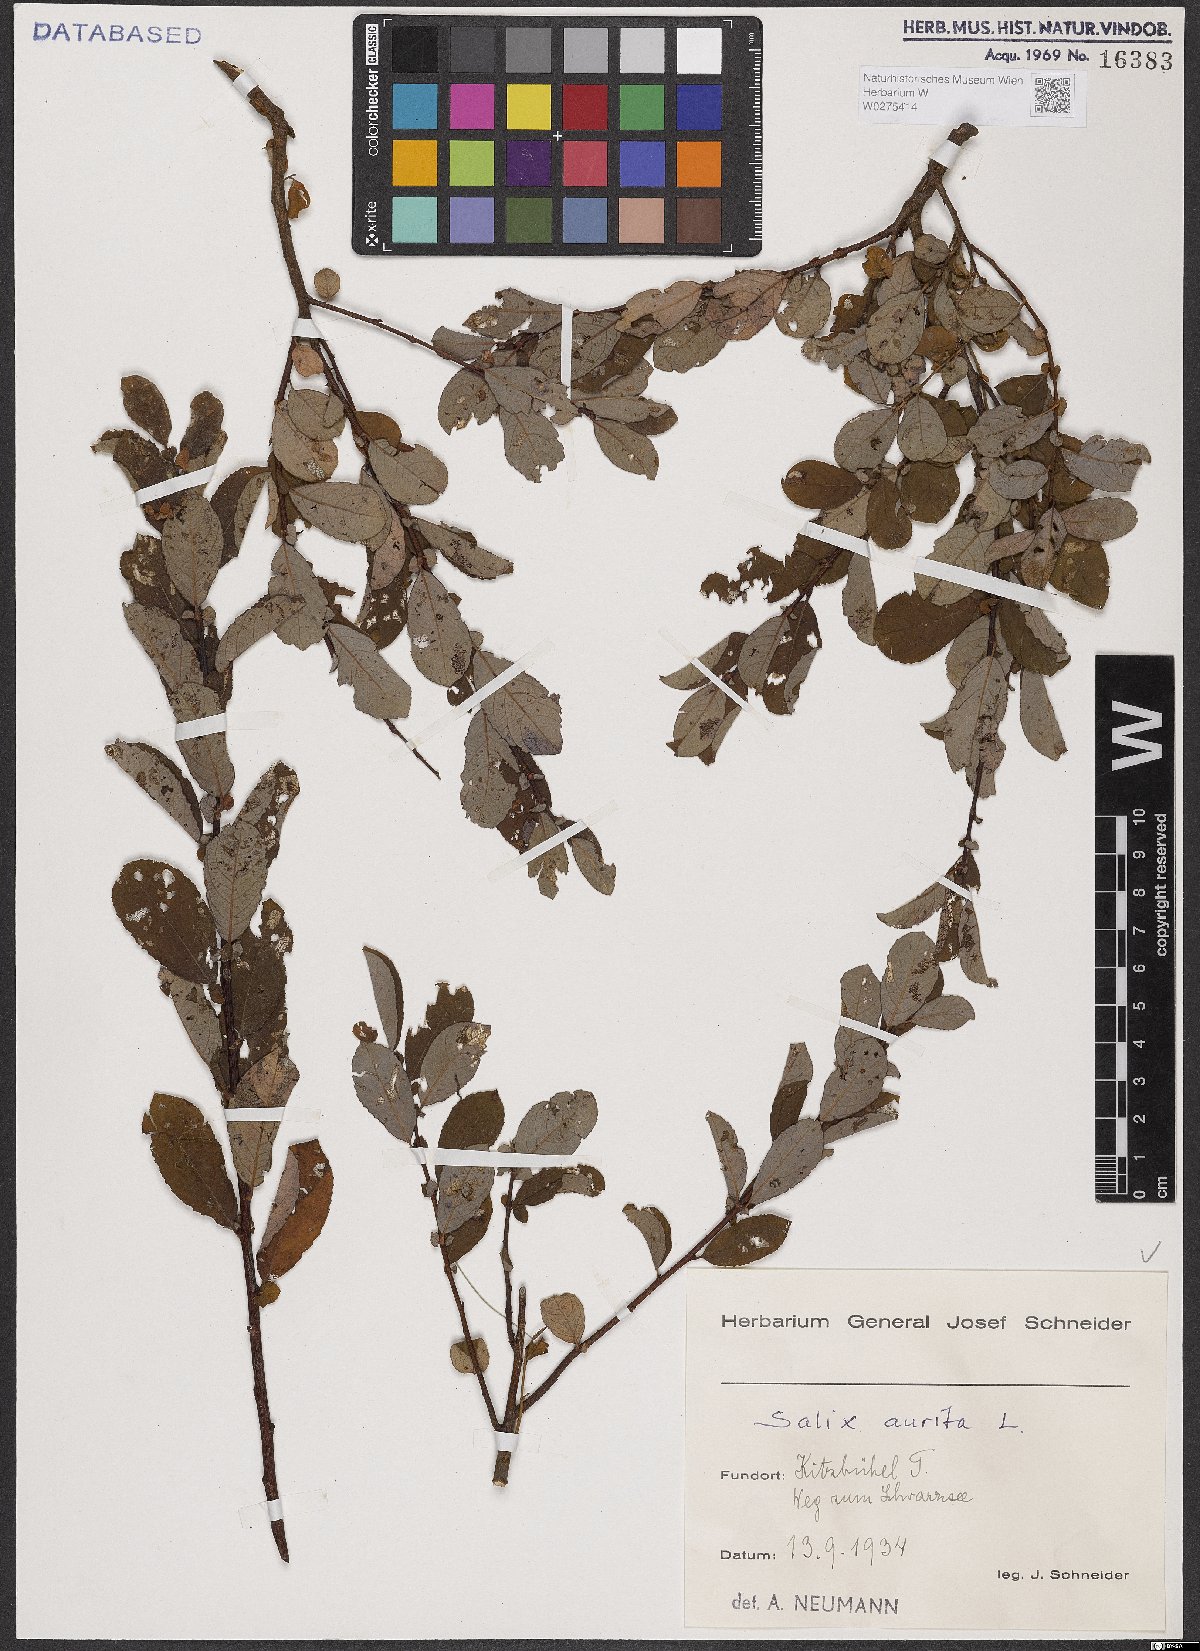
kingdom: Plantae
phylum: Tracheophyta
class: Magnoliopsida
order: Malpighiales
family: Salicaceae
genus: Salix
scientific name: Salix aurita
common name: Eared willow
